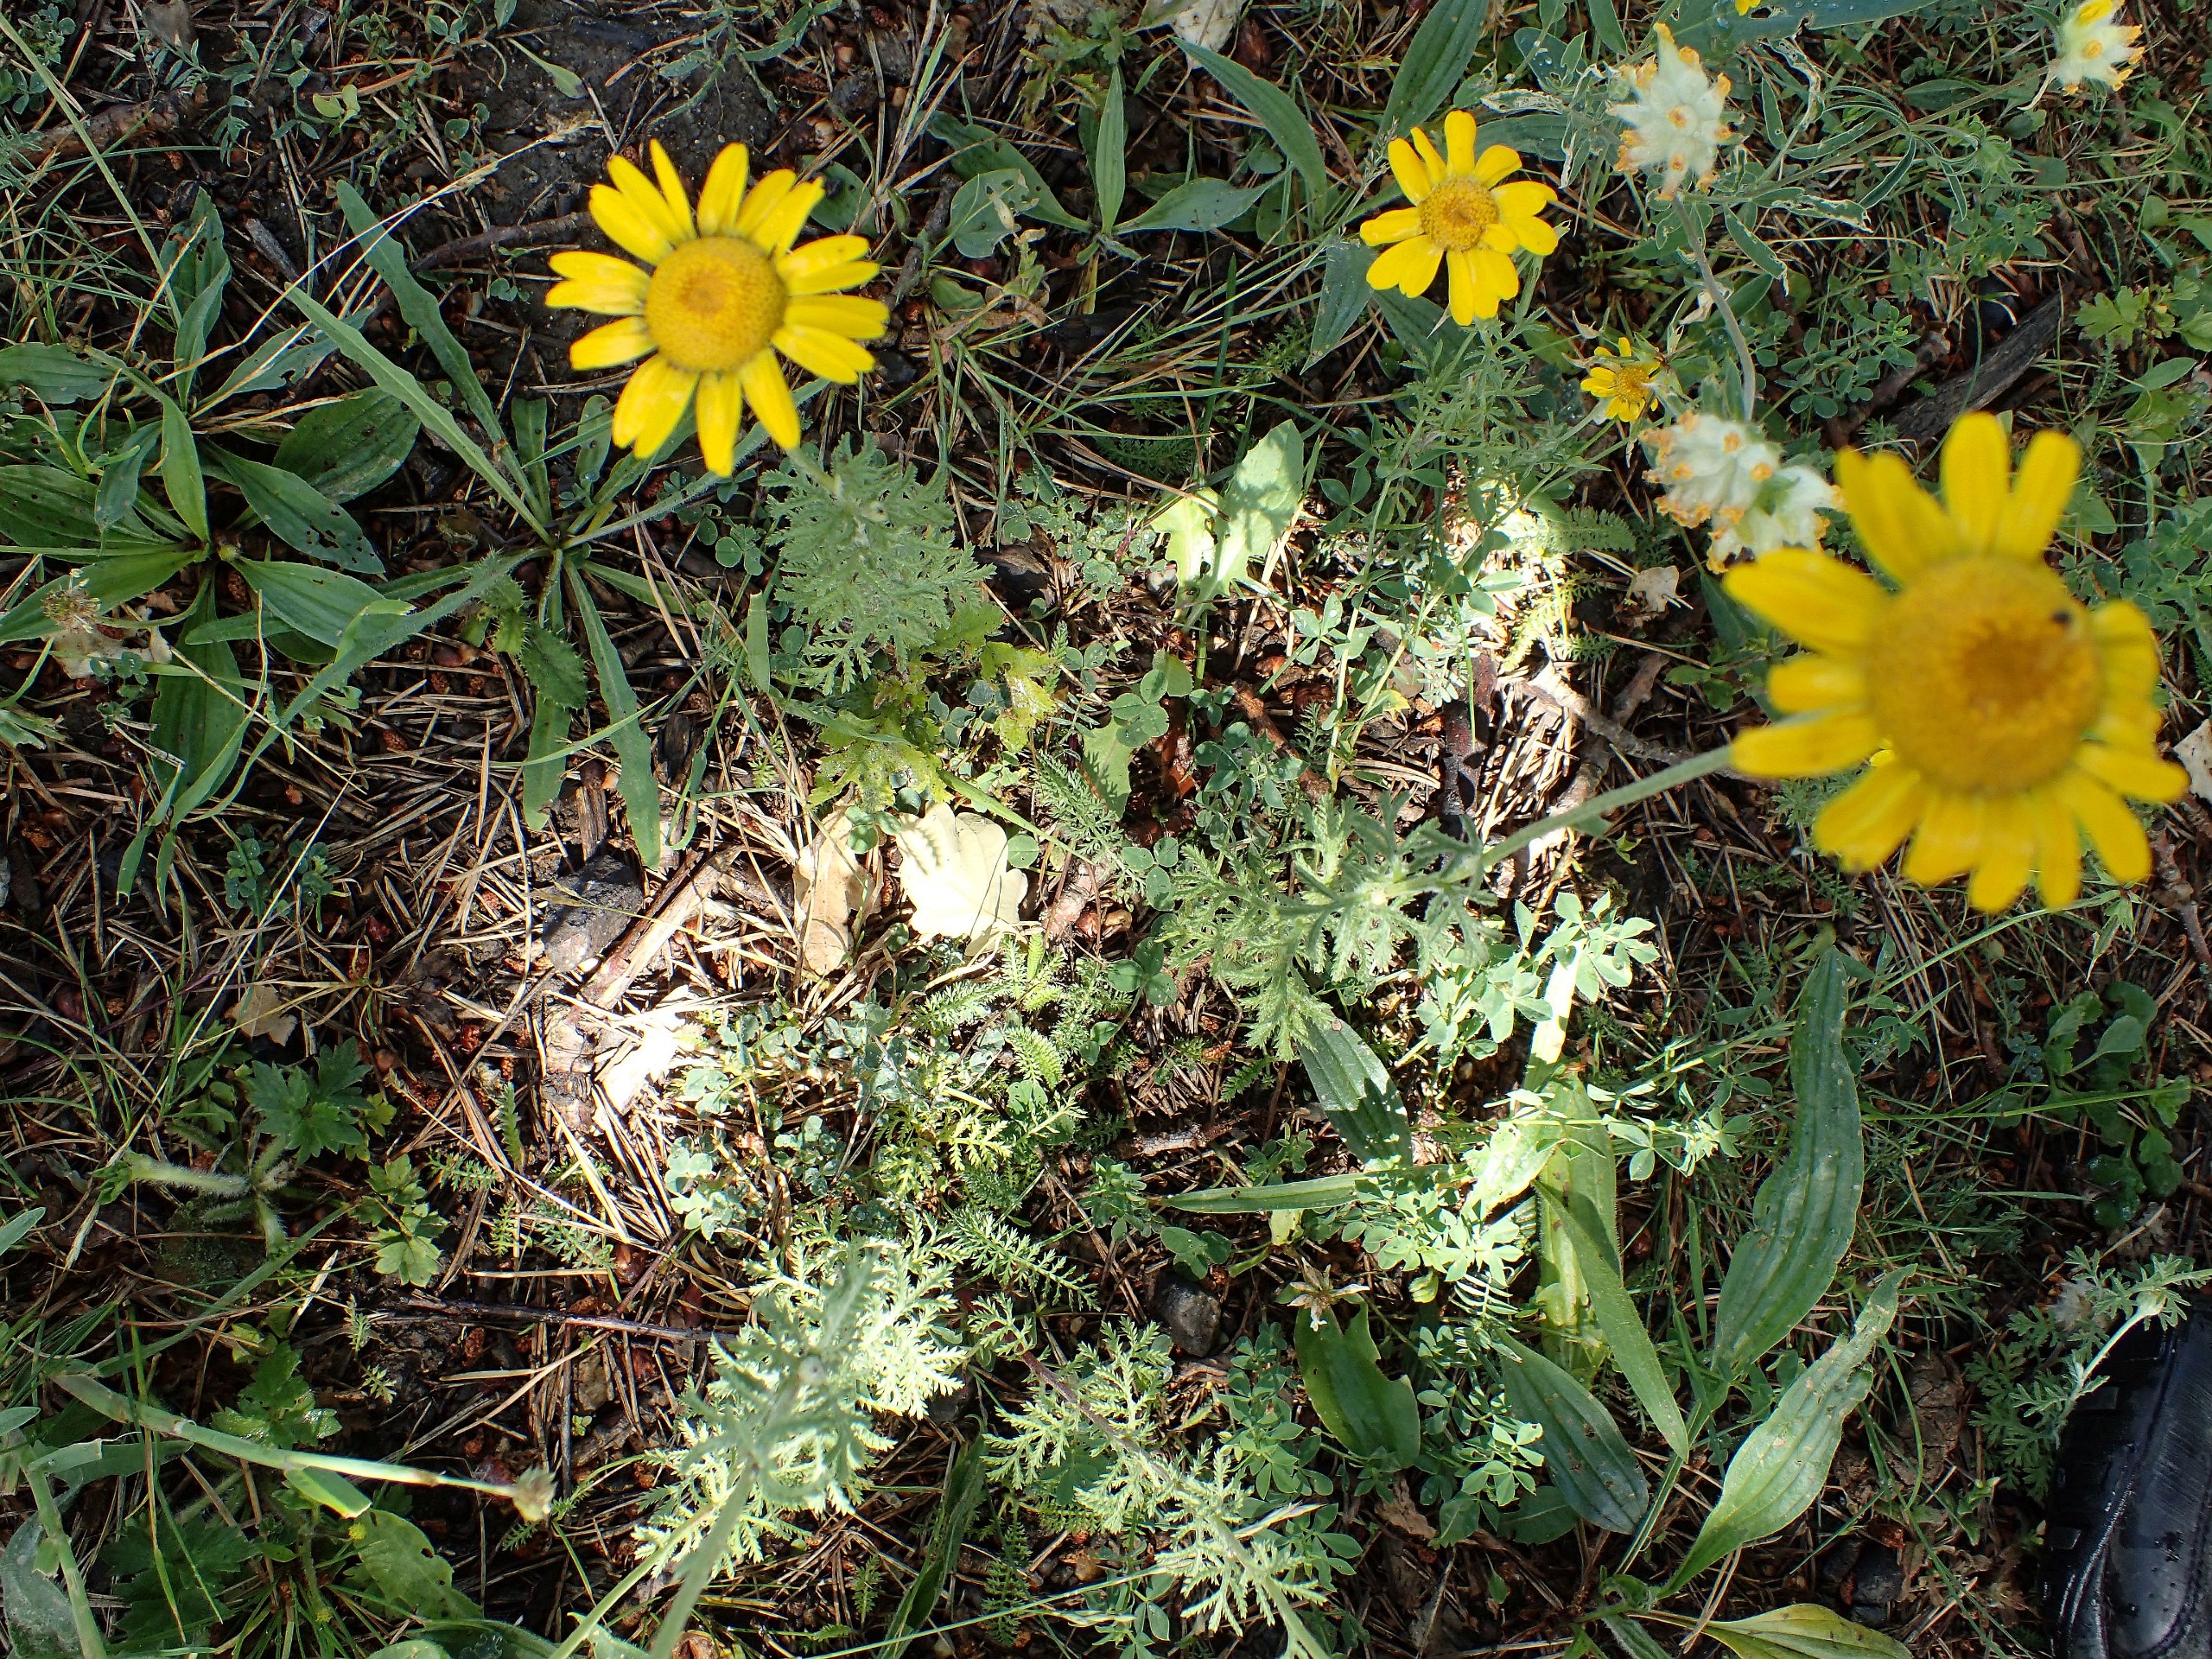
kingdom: Plantae
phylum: Tracheophyta
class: Magnoliopsida
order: Asterales
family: Asteraceae
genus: Cota
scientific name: Cota tinctoria
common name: Farve-gåseurt
